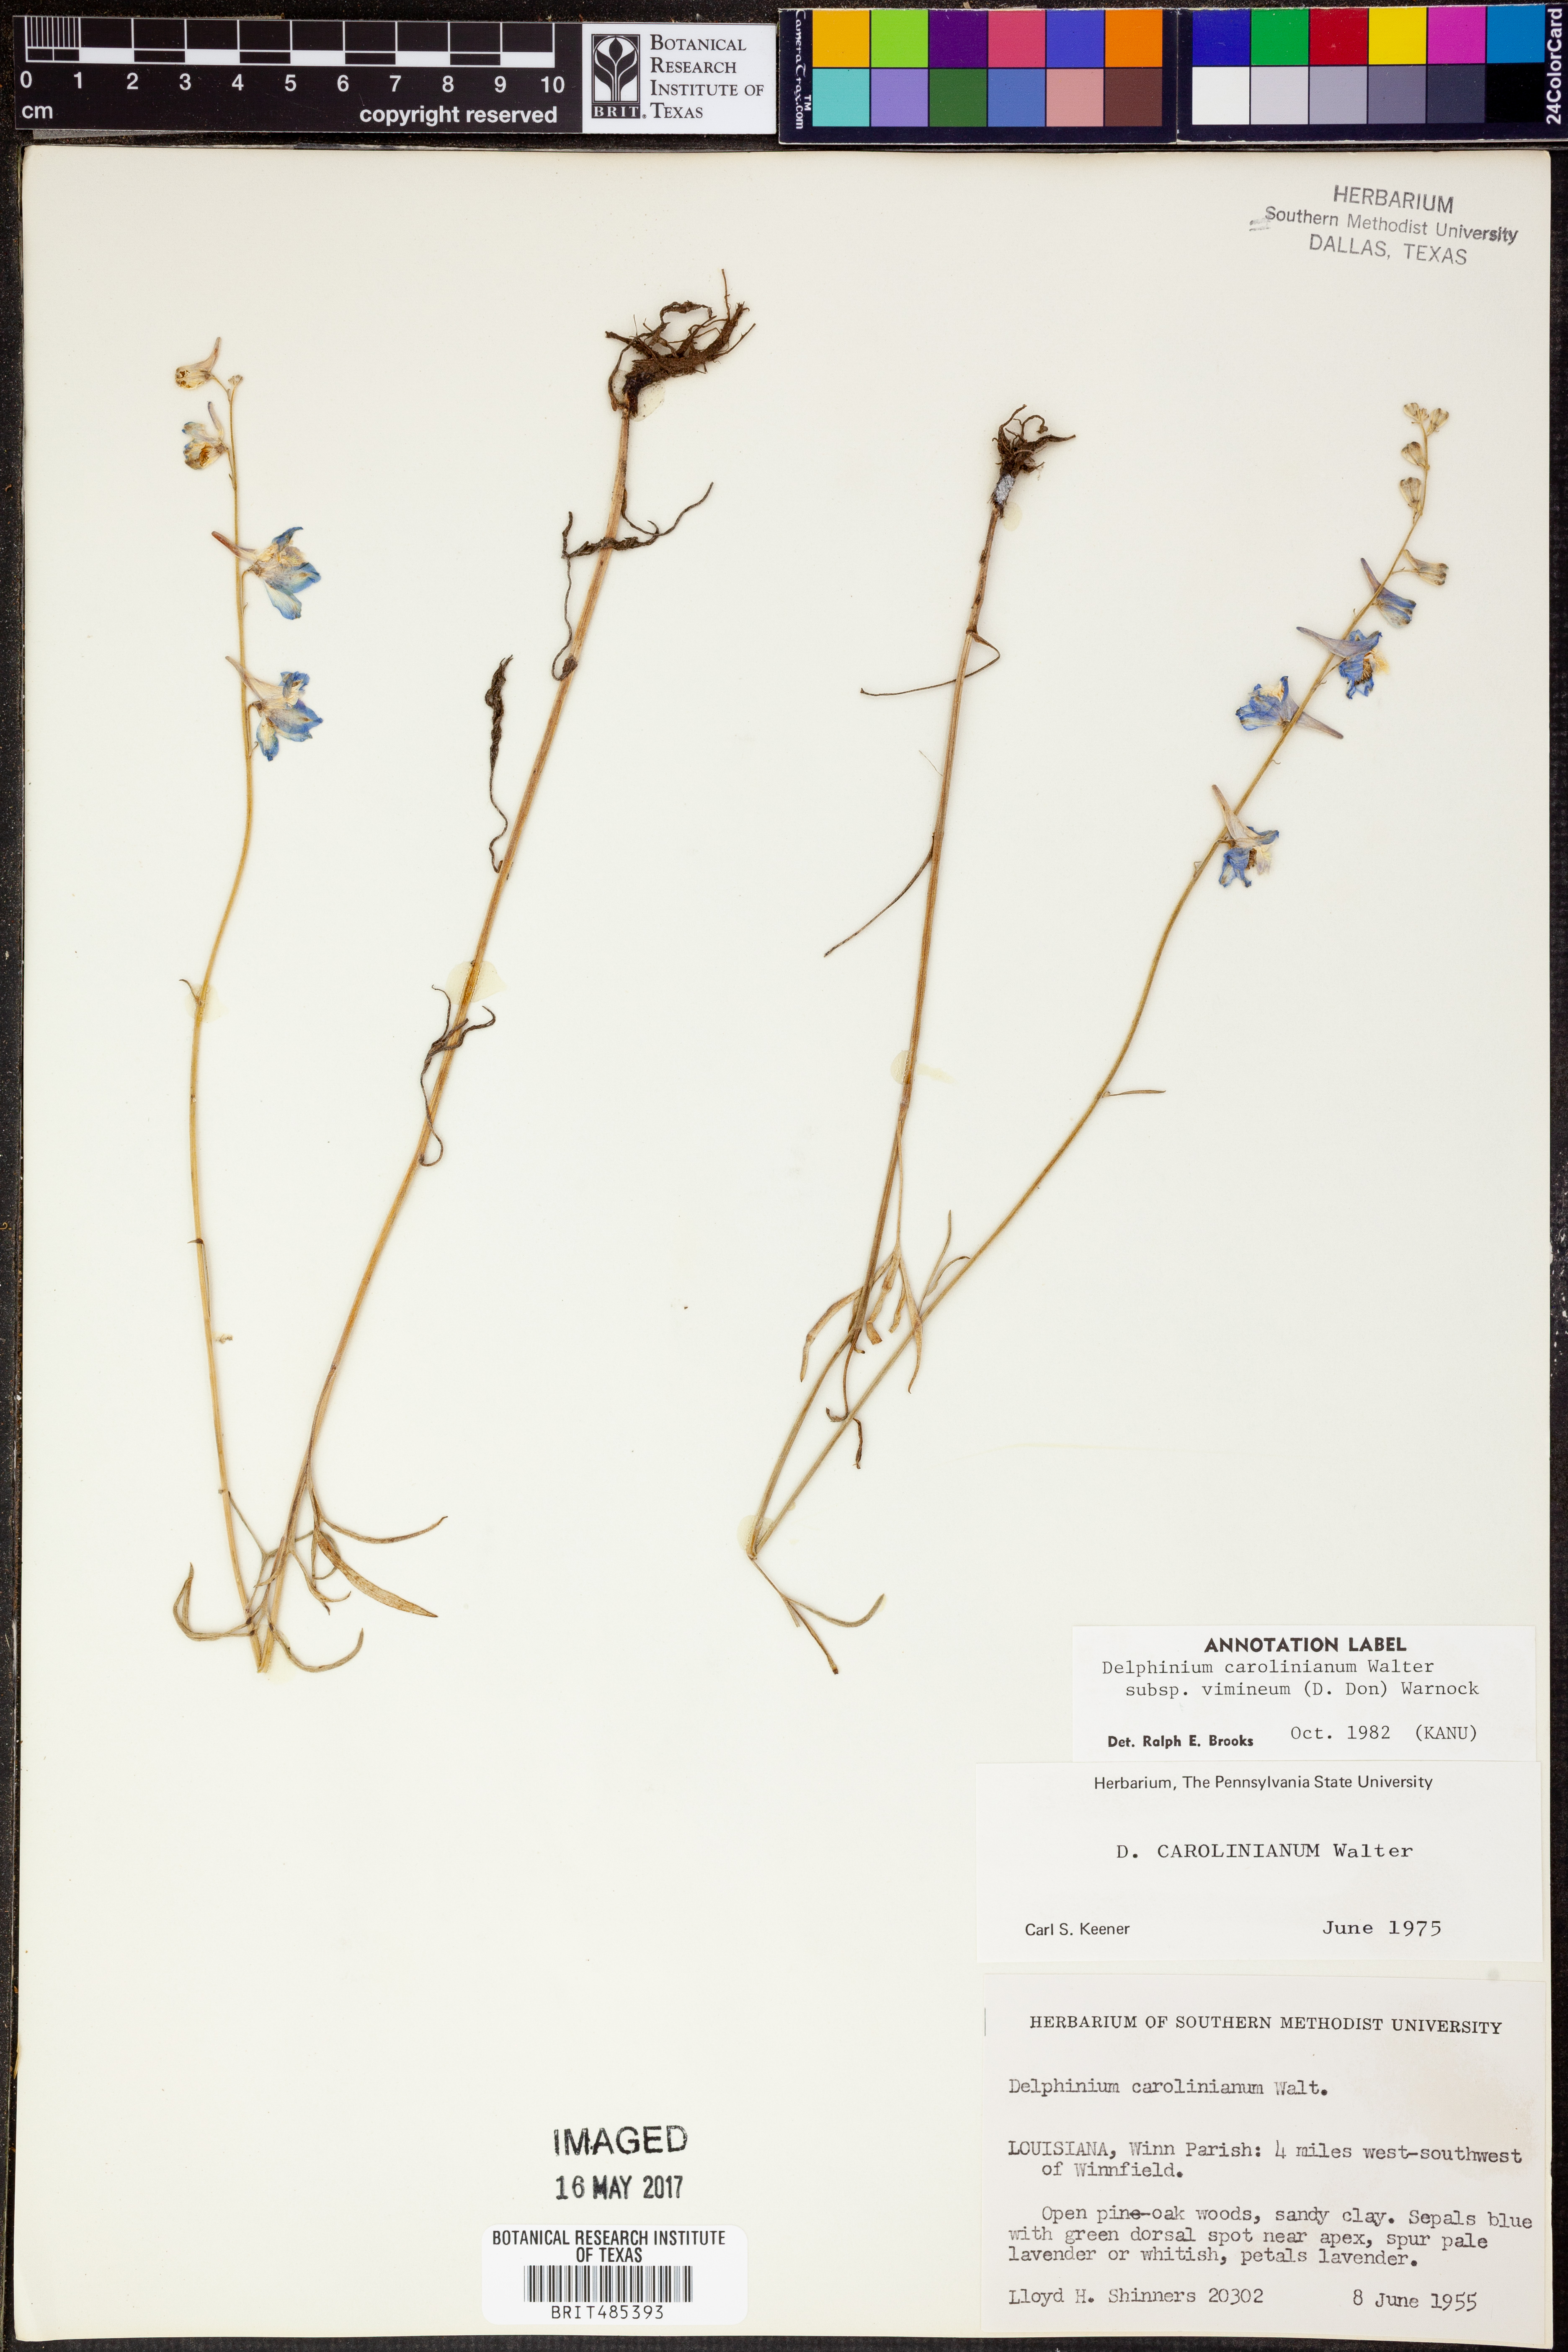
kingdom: Plantae
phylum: Tracheophyta
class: Magnoliopsida
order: Ranunculales
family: Ranunculaceae
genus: Delphinium
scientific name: Delphinium carolinianum
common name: Carolina larkspur
